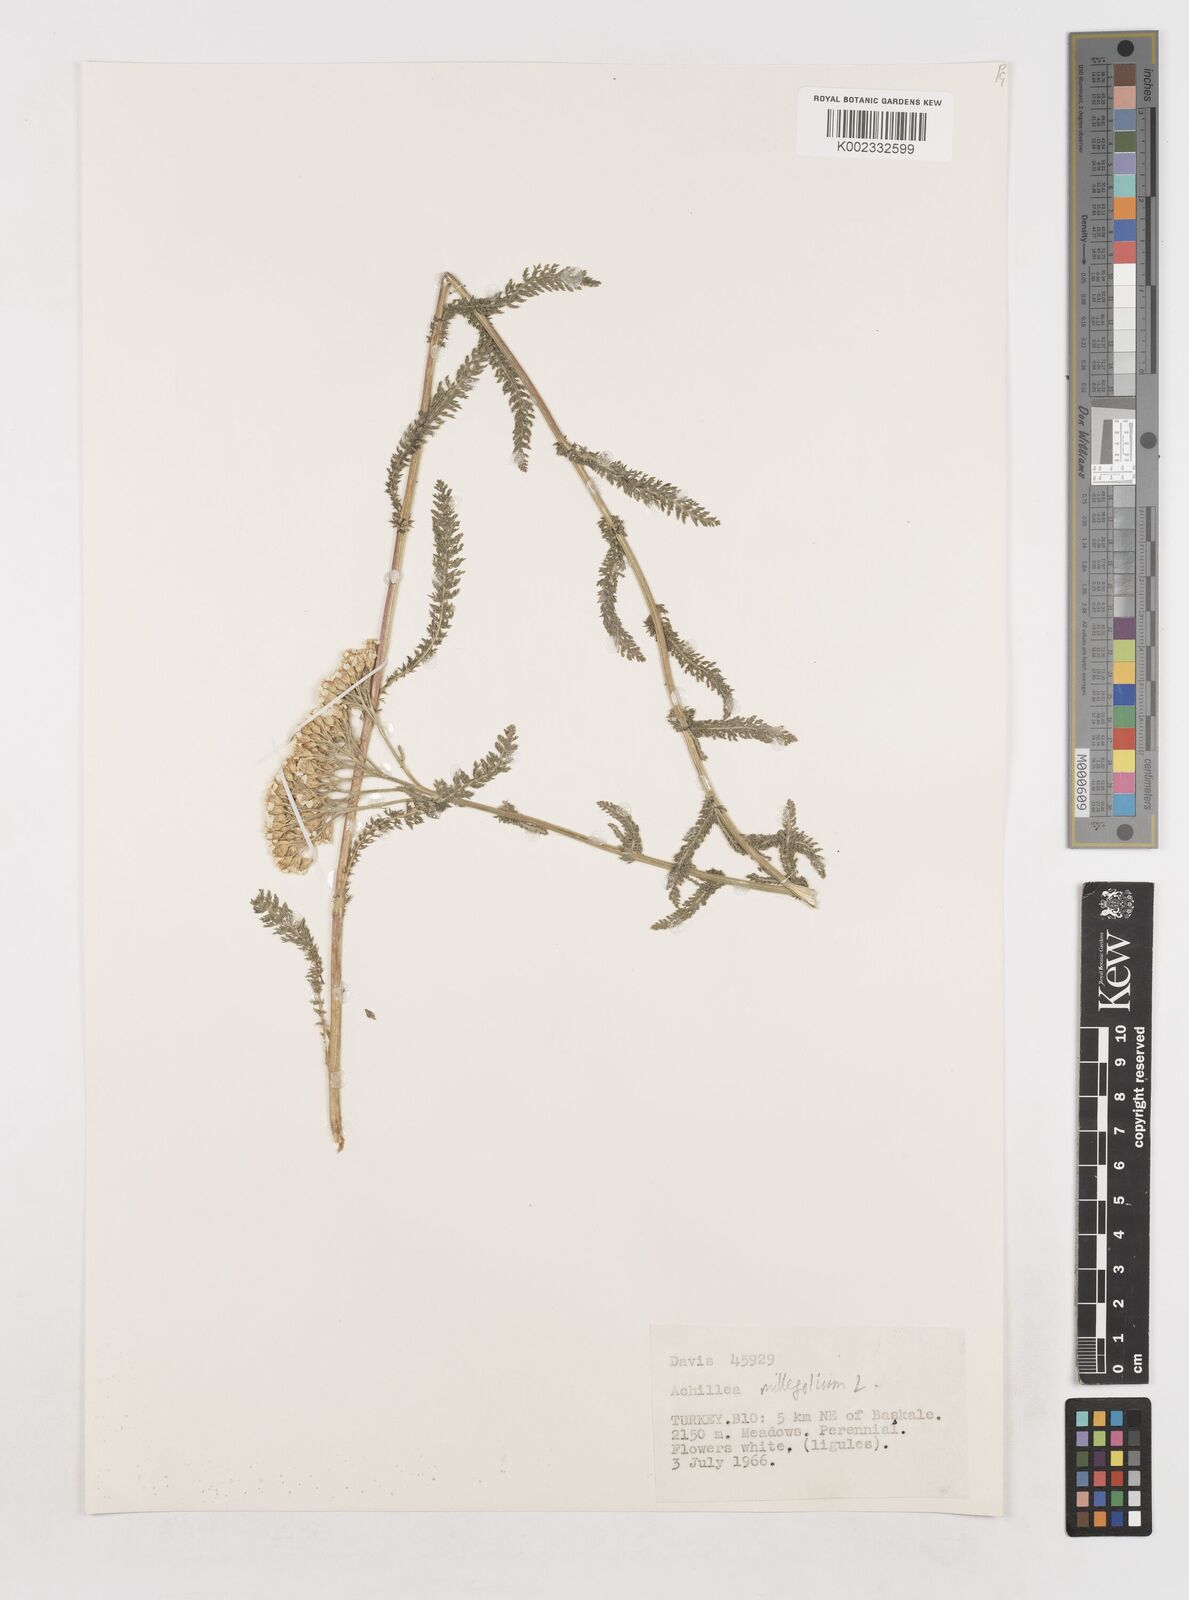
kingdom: Plantae
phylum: Tracheophyta
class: Magnoliopsida
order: Asterales
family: Asteraceae
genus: Achillea
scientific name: Achillea millefolium
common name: Yarrow
